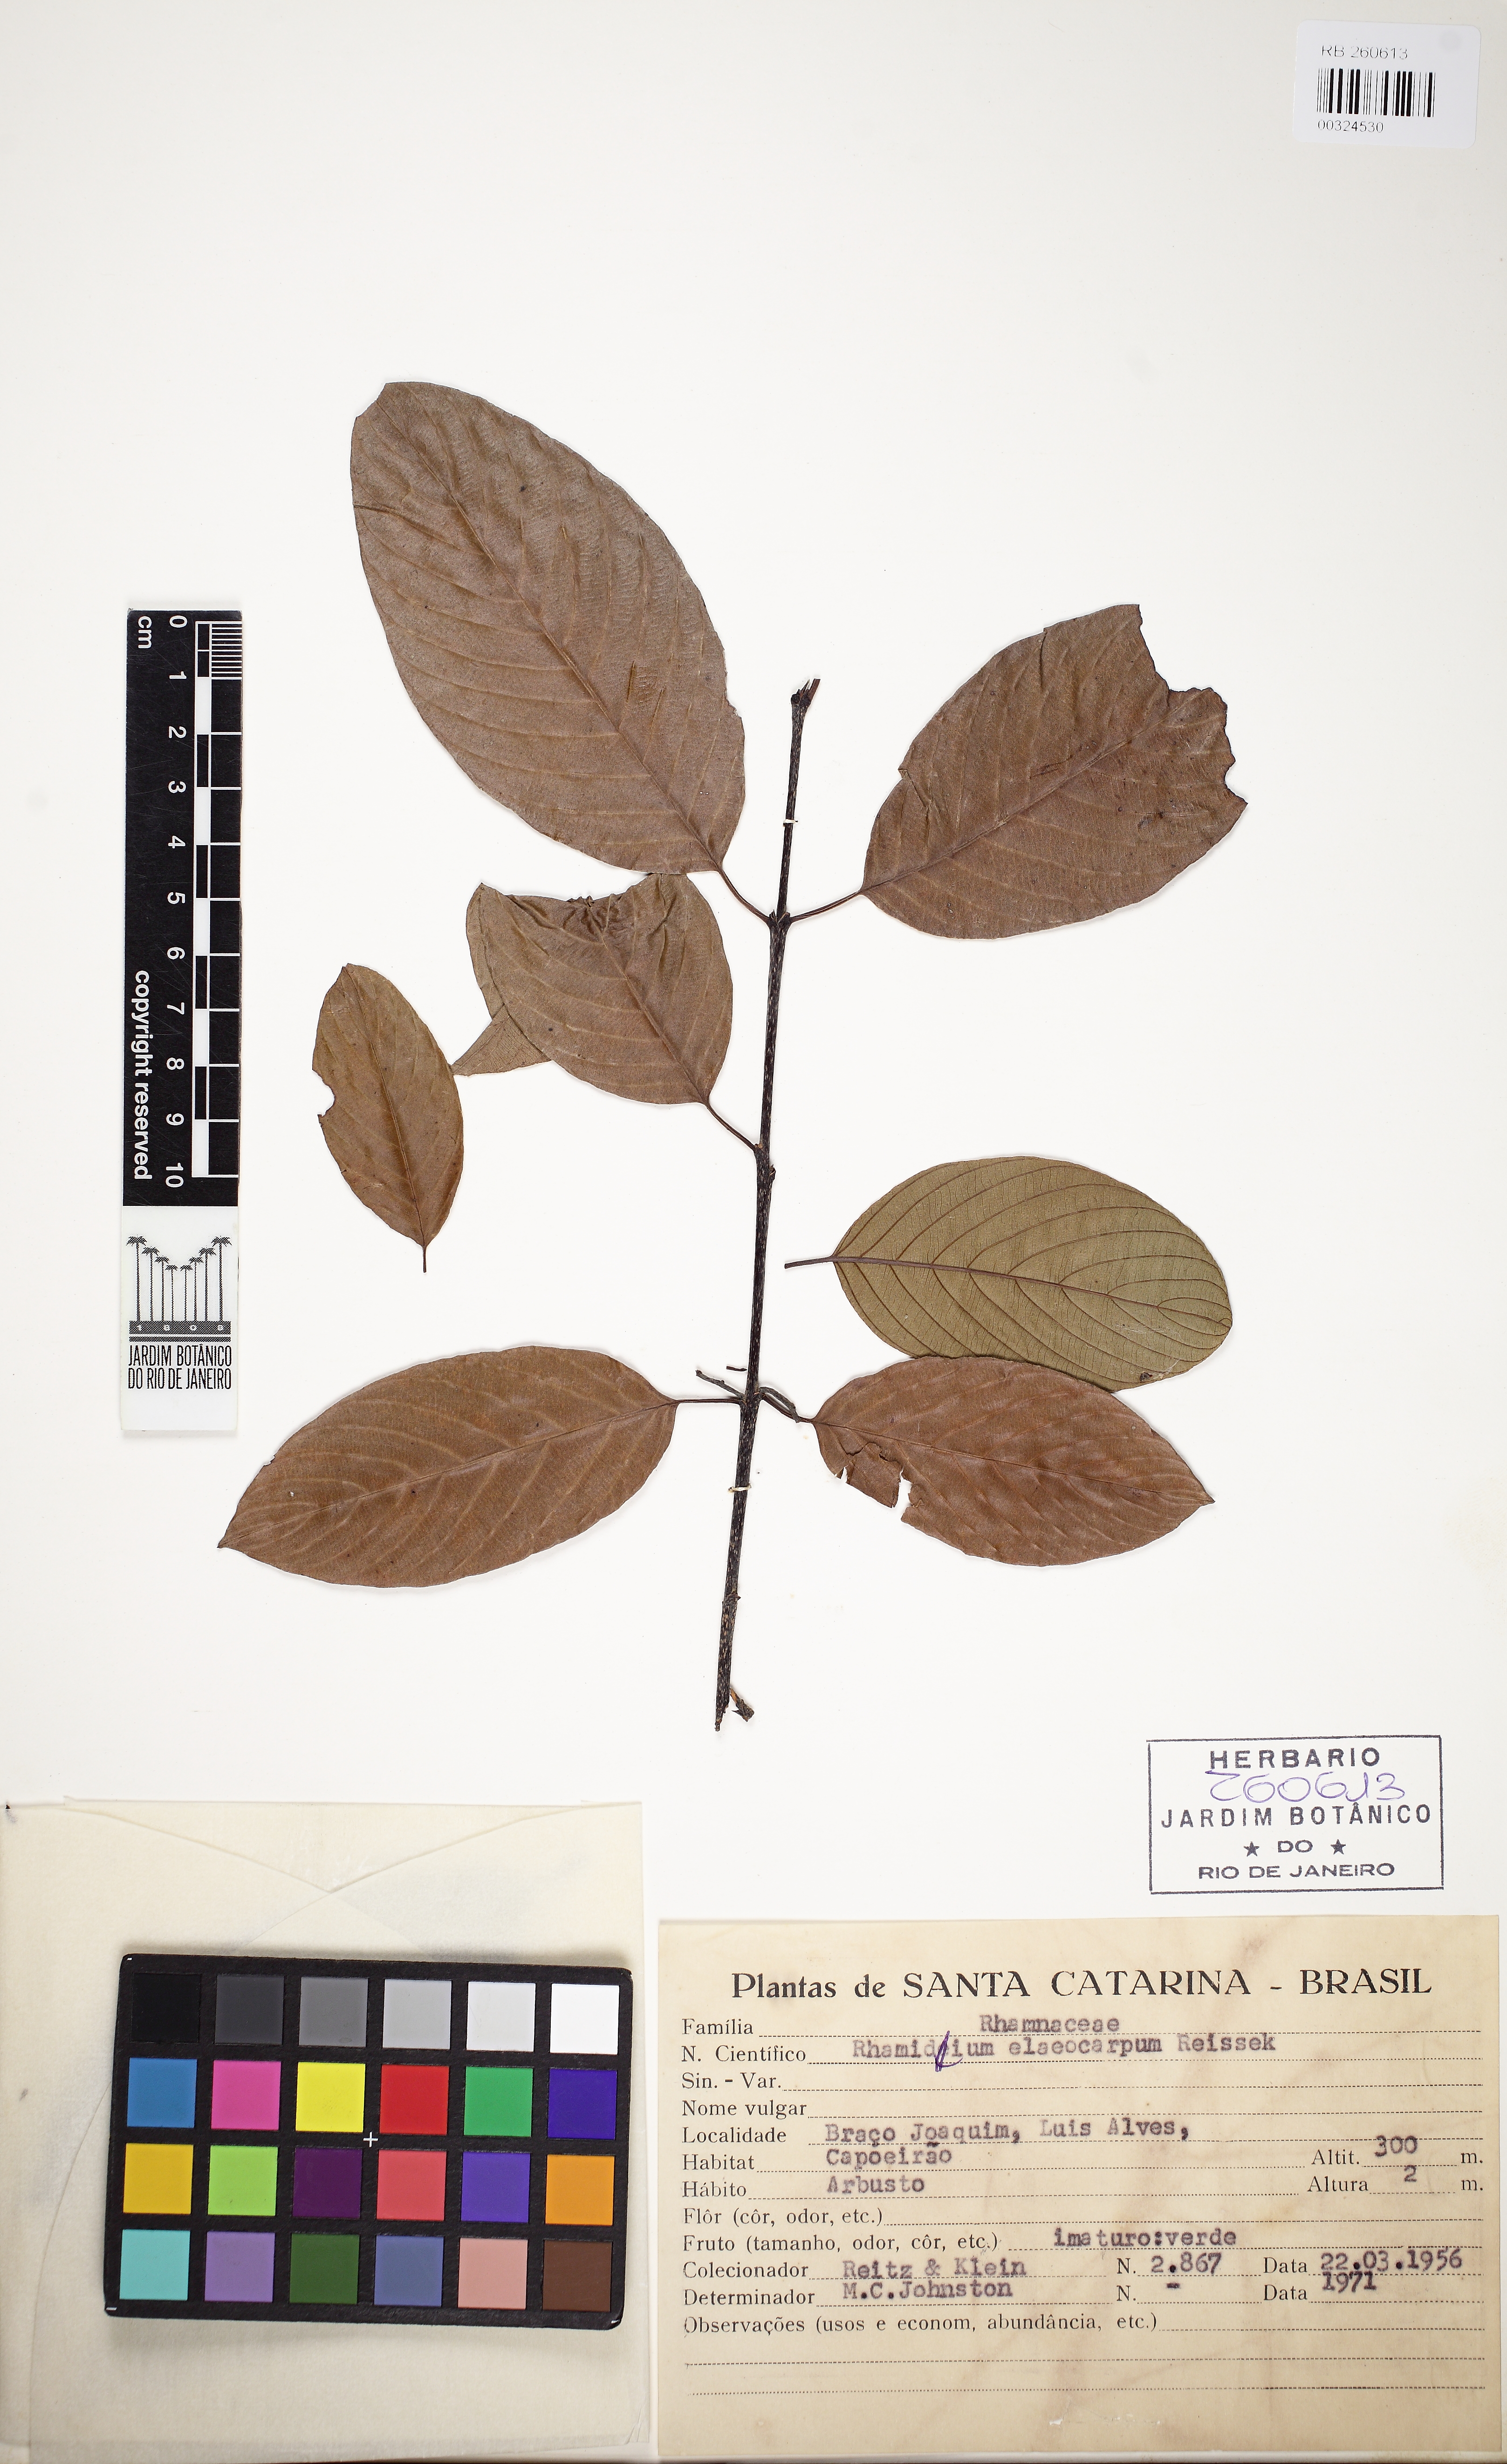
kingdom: Plantae
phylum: Tracheophyta
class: Magnoliopsida
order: Rosales
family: Rhamnaceae
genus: Rhamnidium
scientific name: Rhamnidium elaeocarpum
